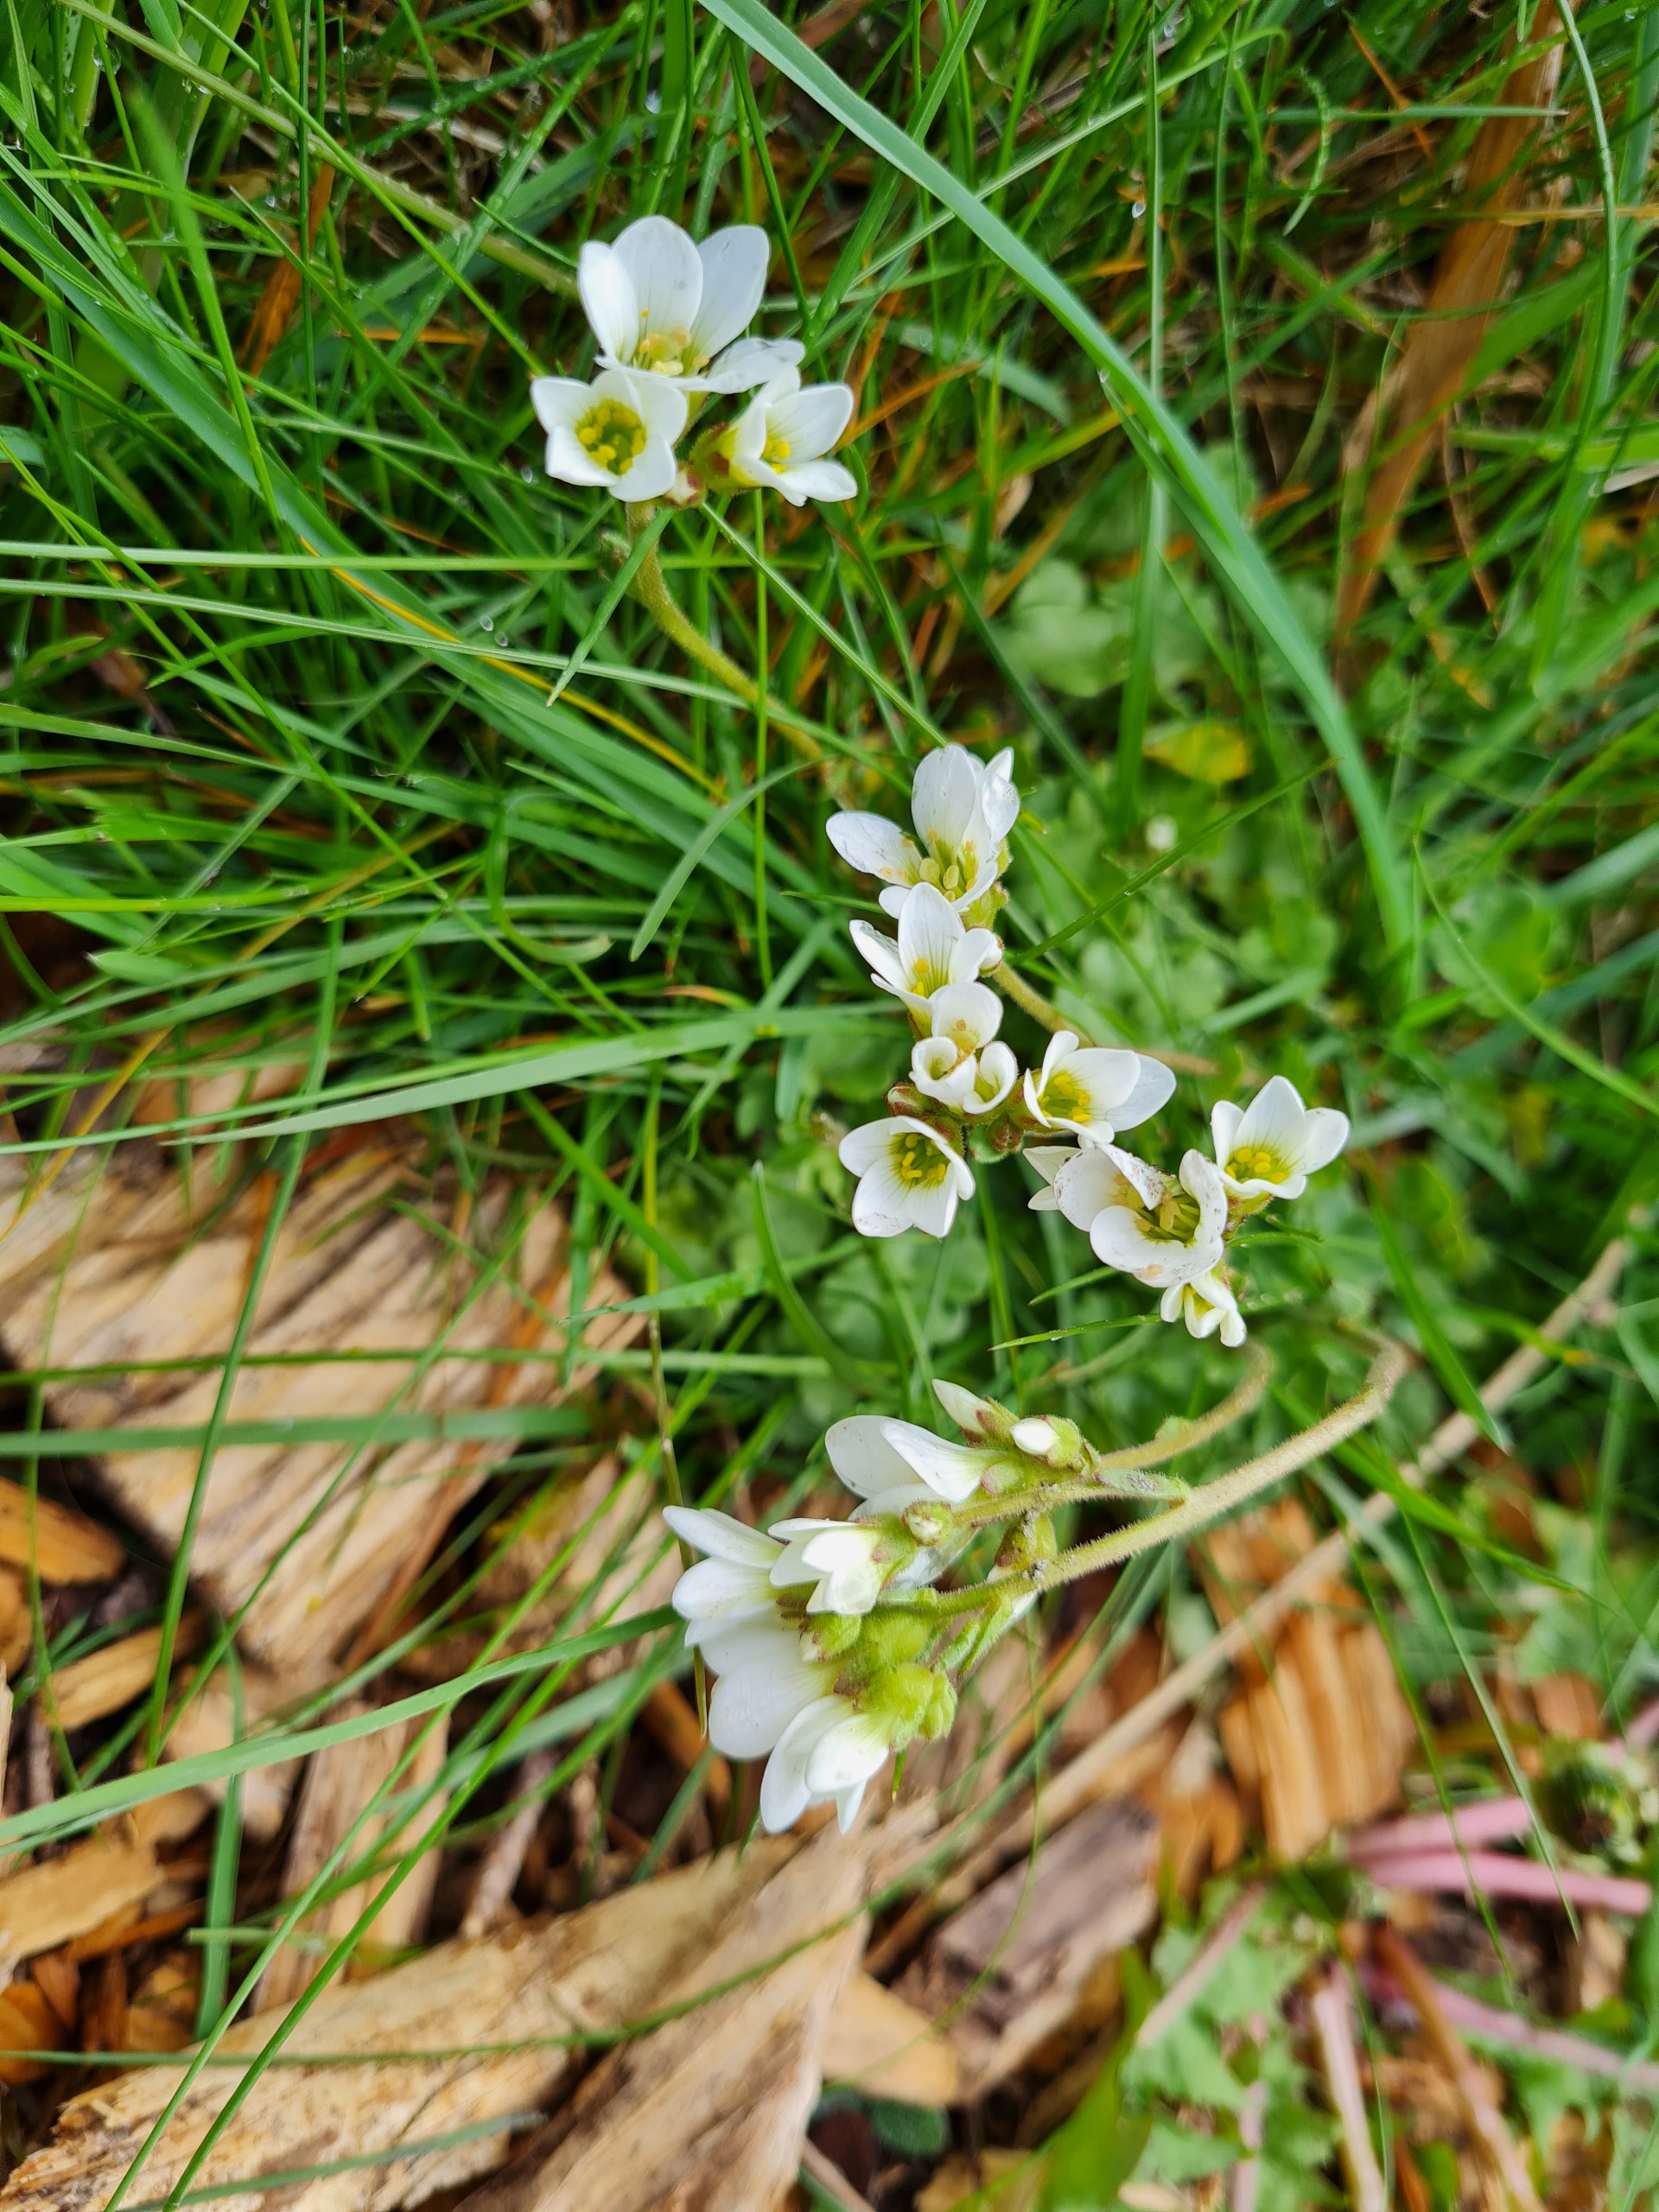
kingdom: Plantae
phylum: Tracheophyta
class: Magnoliopsida
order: Saxifragales
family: Saxifragaceae
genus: Saxifraga
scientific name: Saxifraga granulata
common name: Kornet stenbræk
